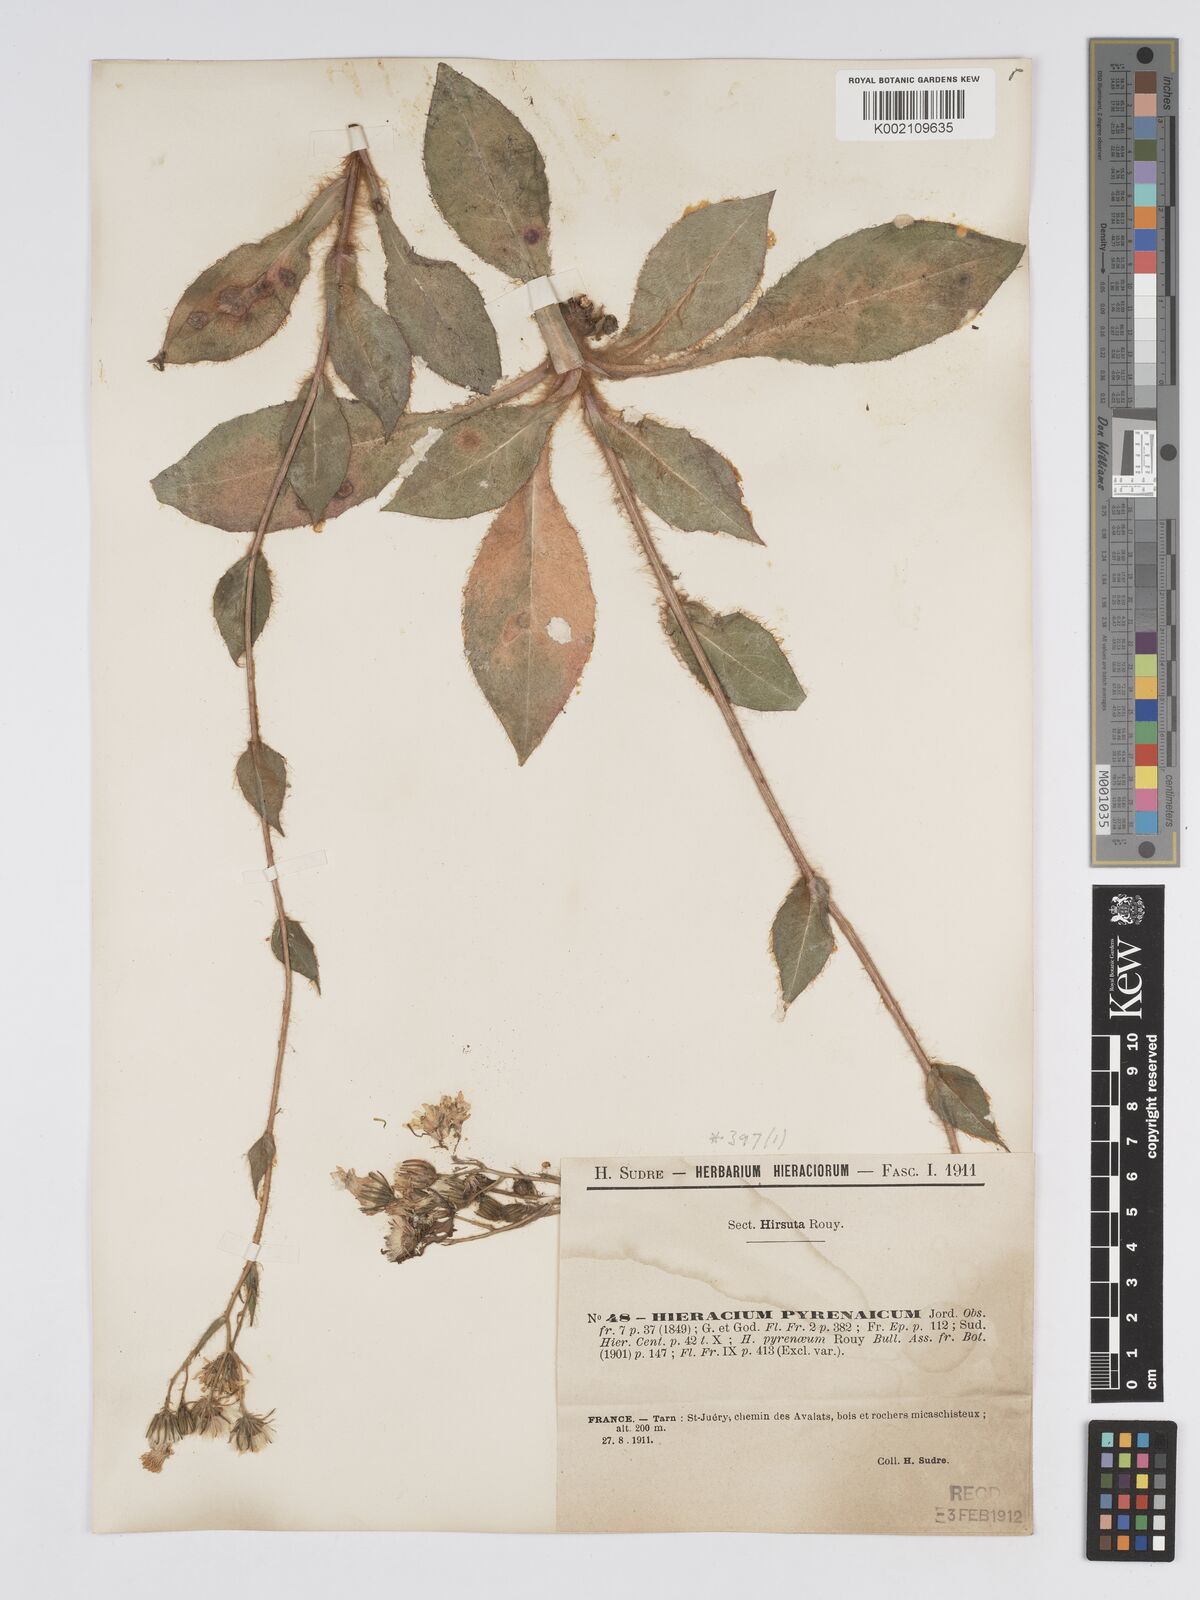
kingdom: Plantae
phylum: Tracheophyta
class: Magnoliopsida
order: Asterales
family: Asteraceae
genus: Hieracium
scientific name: Hieracium nobile
